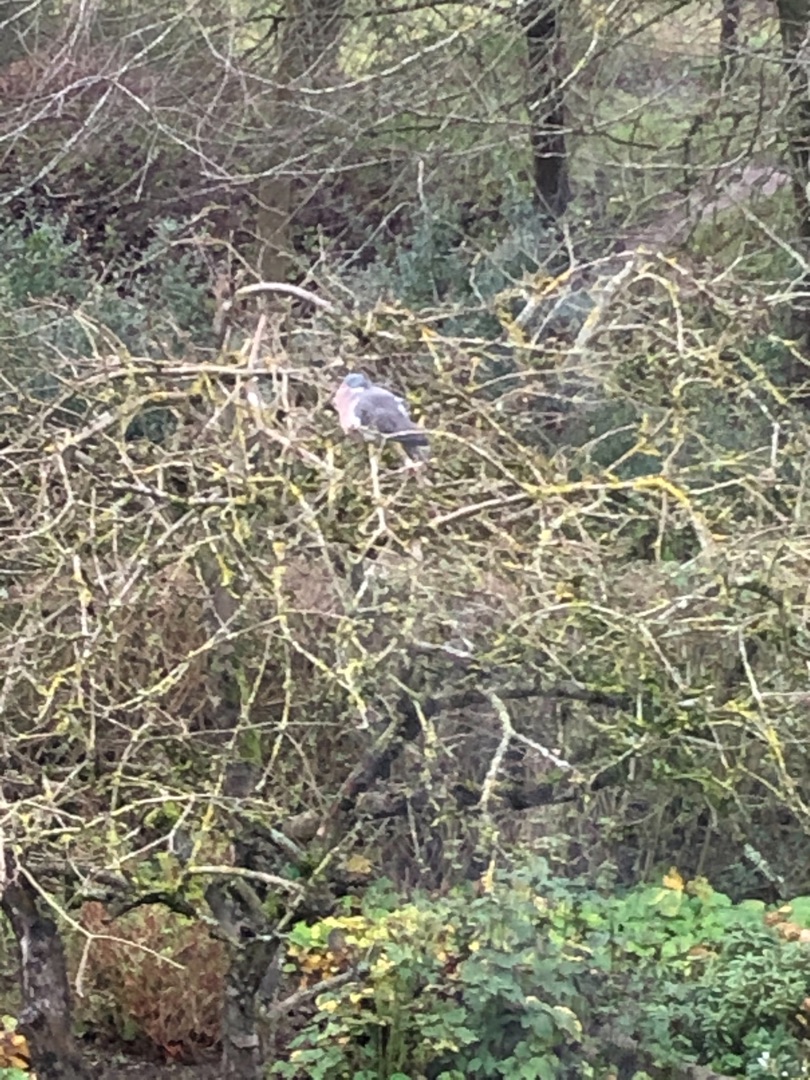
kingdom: Animalia
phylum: Chordata
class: Aves
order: Columbiformes
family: Columbidae
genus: Columba
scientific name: Columba palumbus
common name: Ringdue
